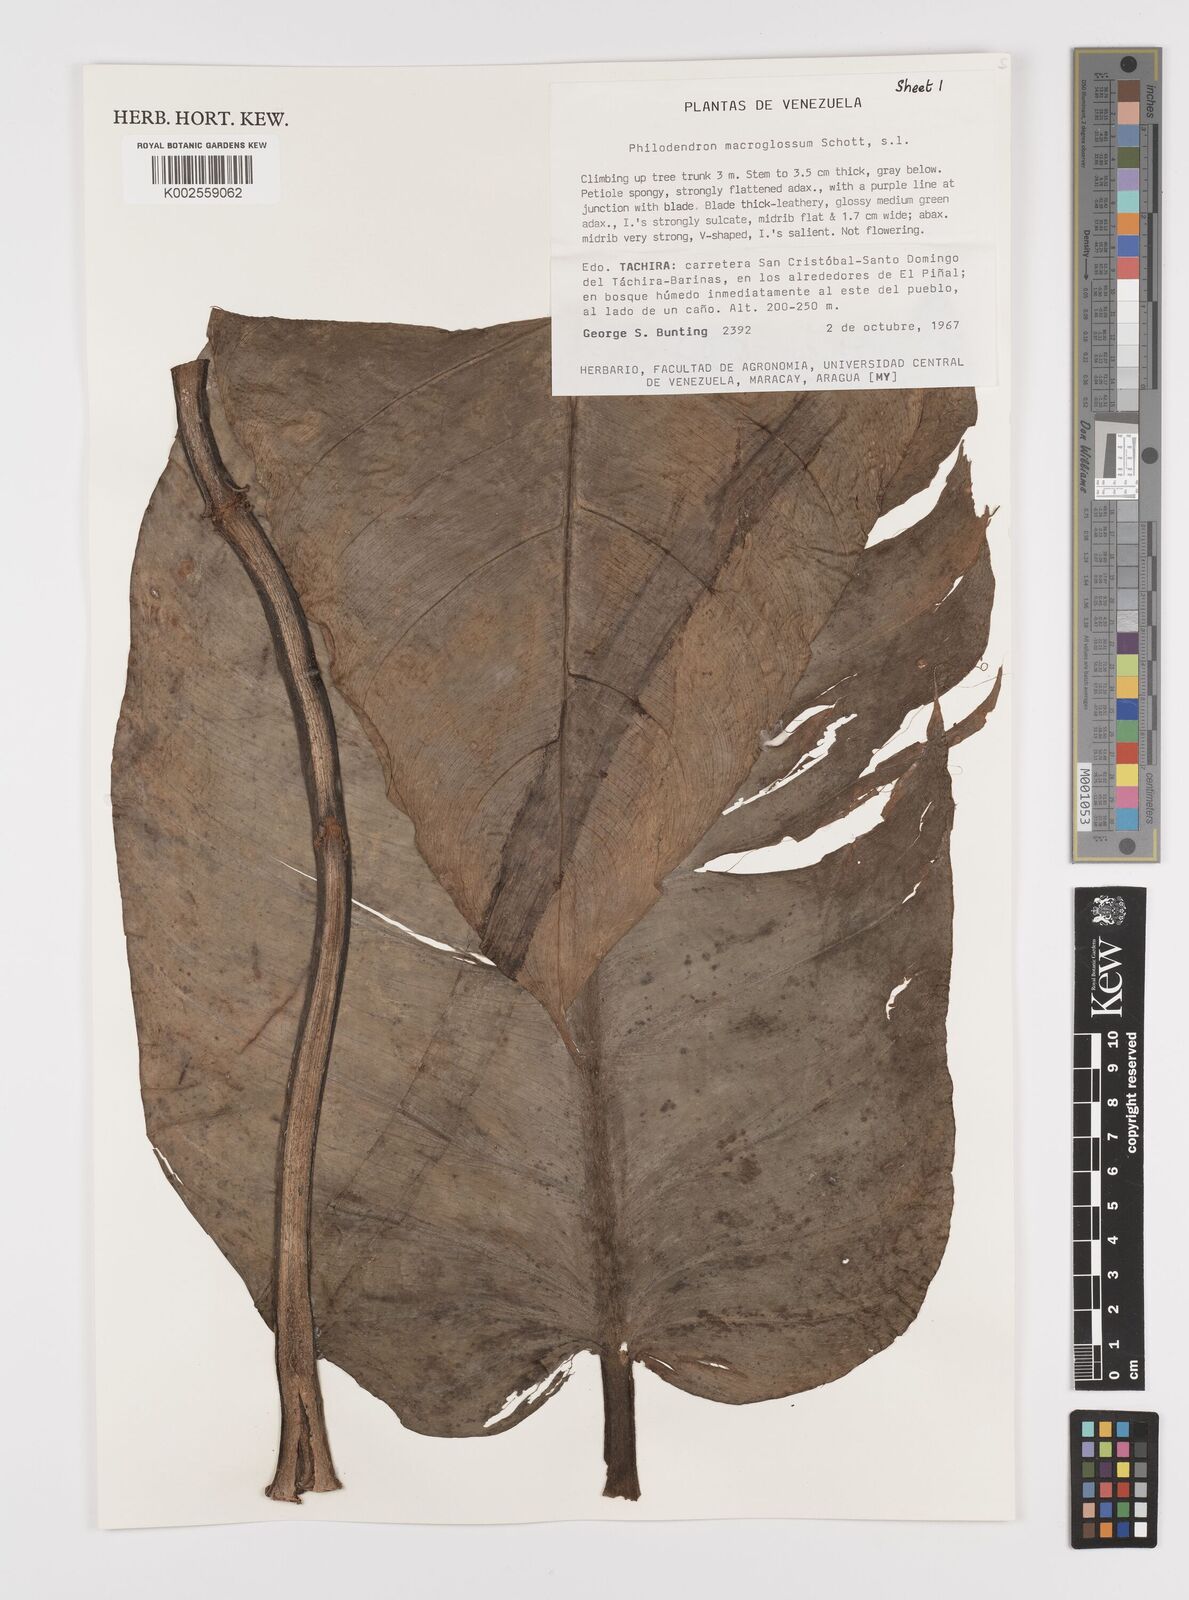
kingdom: Plantae
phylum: Tracheophyta
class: Liliopsida
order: Alismatales
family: Araceae
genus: Philodendron
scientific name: Philodendron macroglossum
